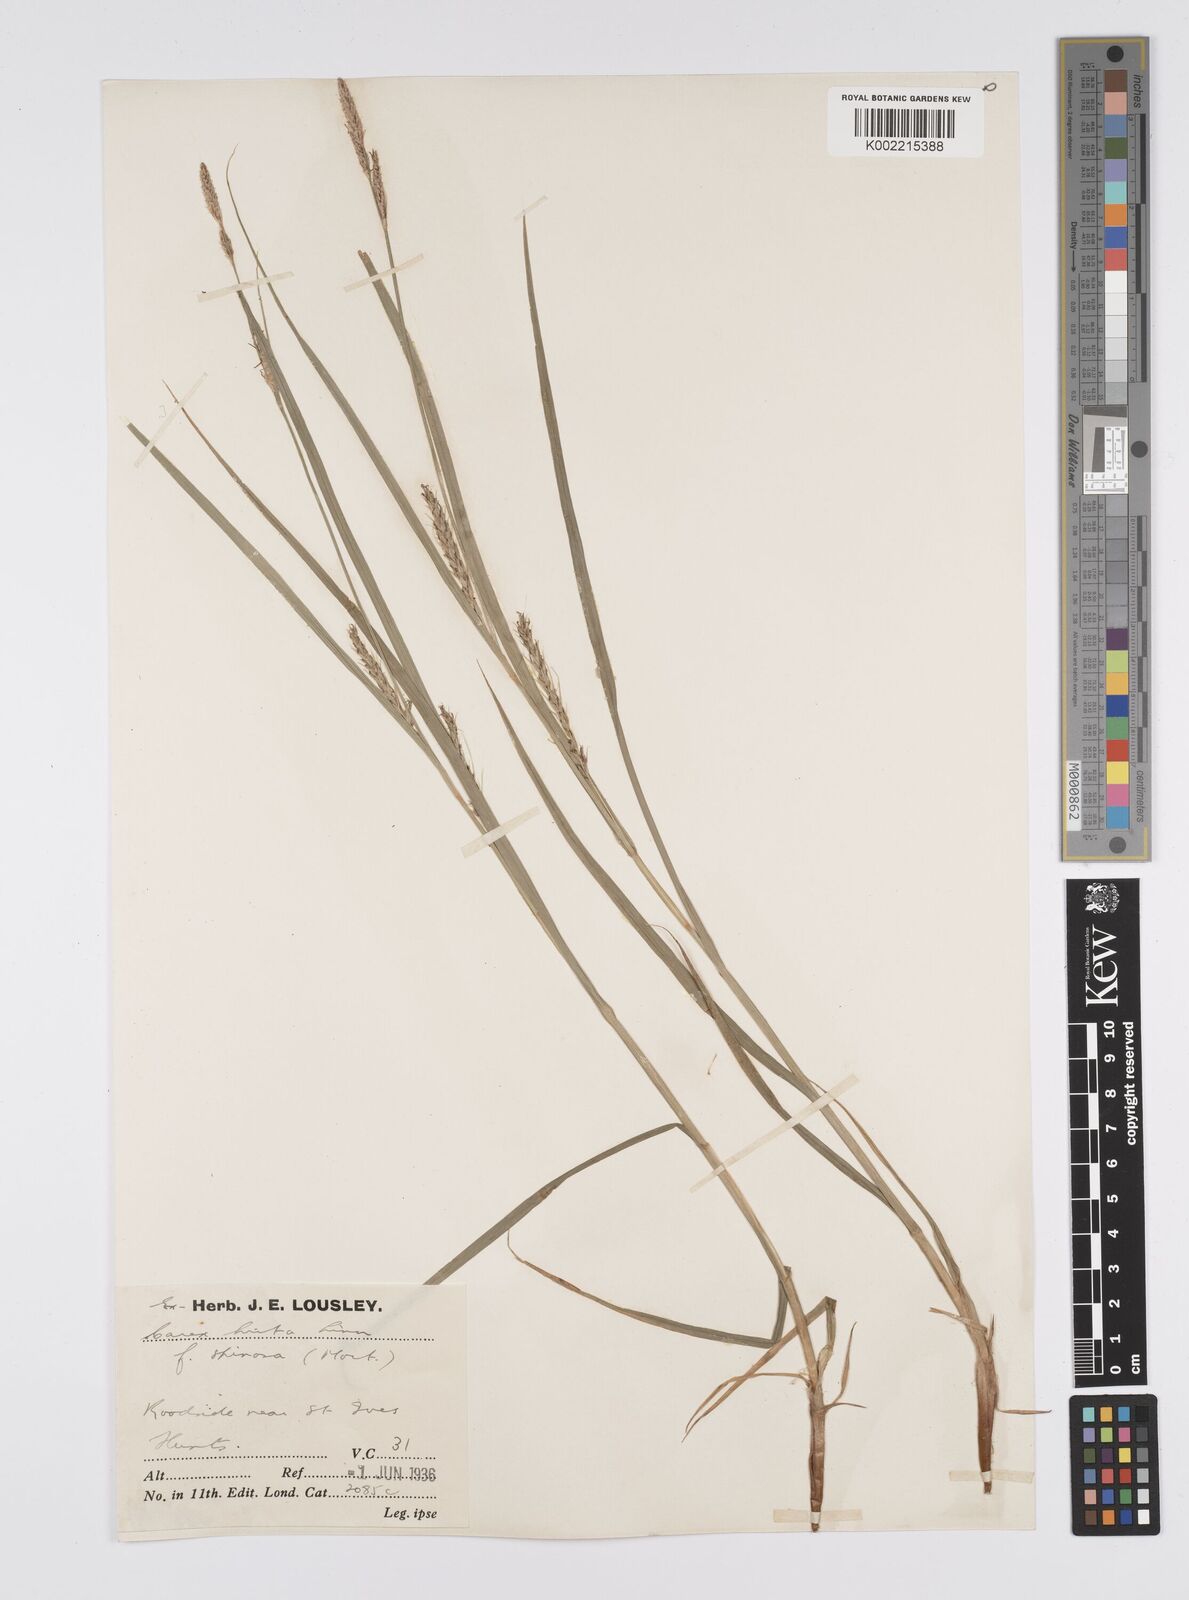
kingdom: Plantae
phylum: Tracheophyta
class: Liliopsida
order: Poales
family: Cyperaceae
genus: Carex
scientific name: Carex hirta
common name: Hairy sedge
